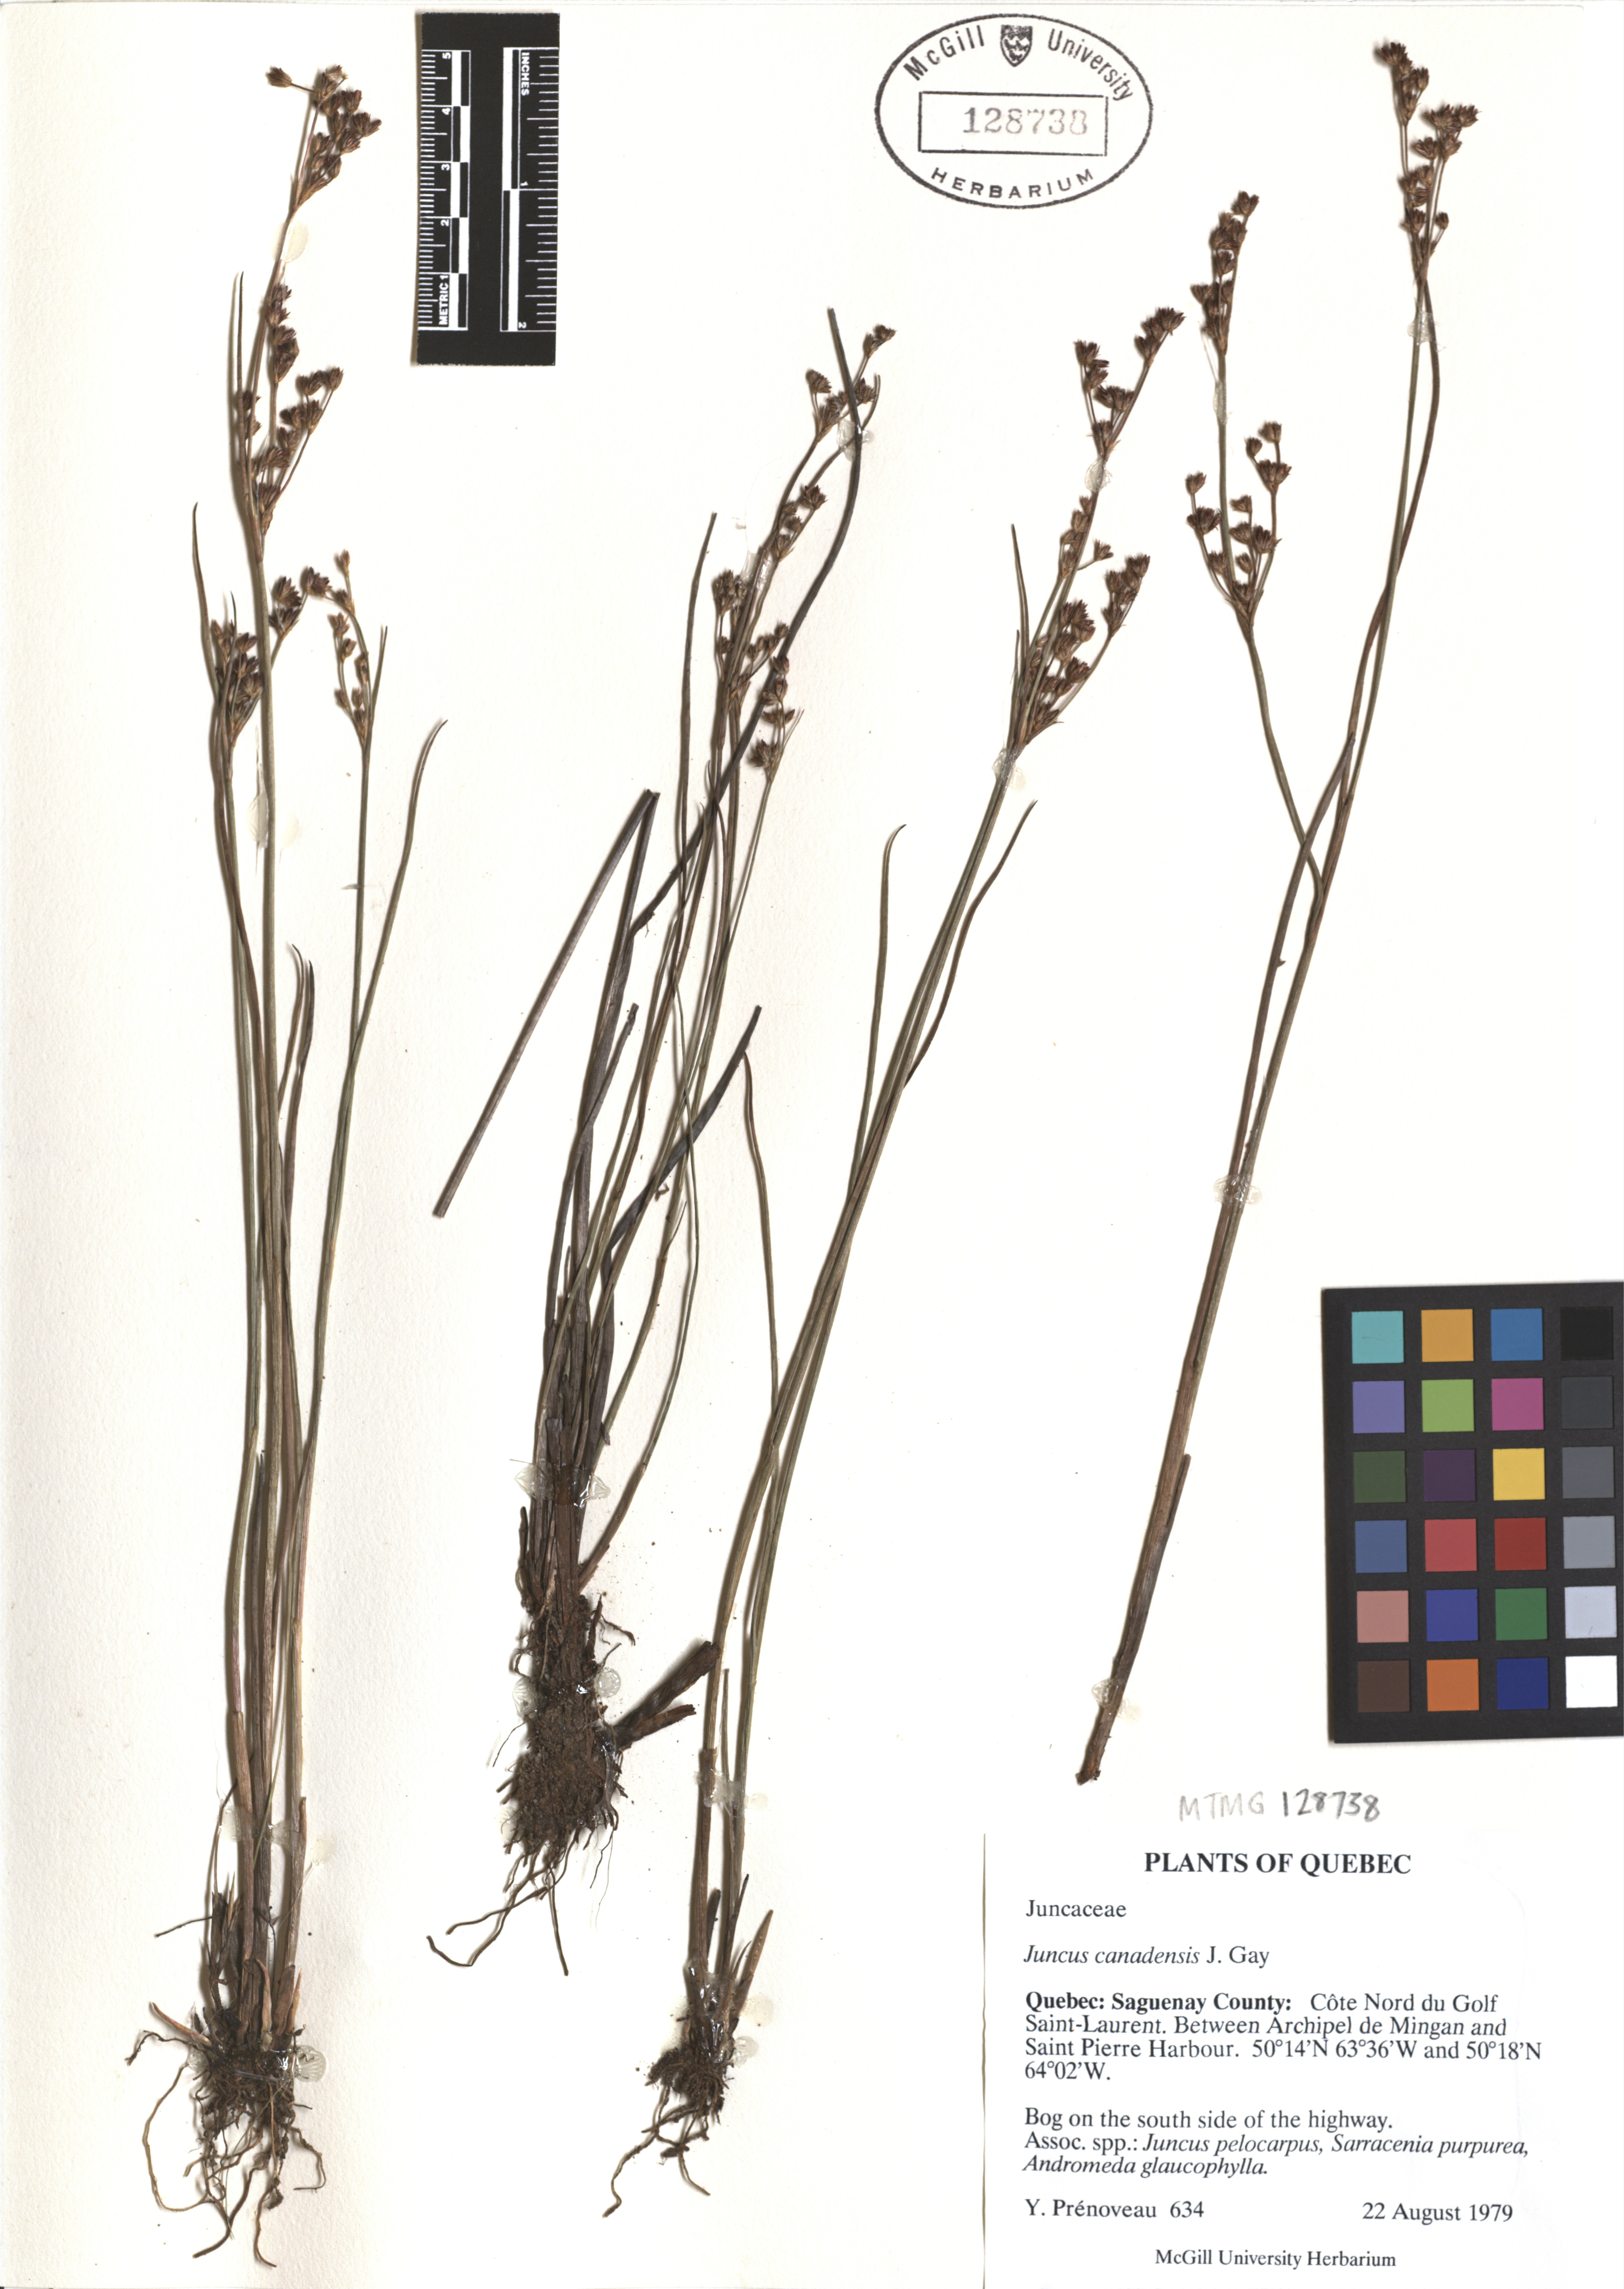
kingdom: Plantae
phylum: Tracheophyta
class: Liliopsida
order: Poales
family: Juncaceae
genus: Juncus
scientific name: Juncus canadensis
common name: Canada rush
